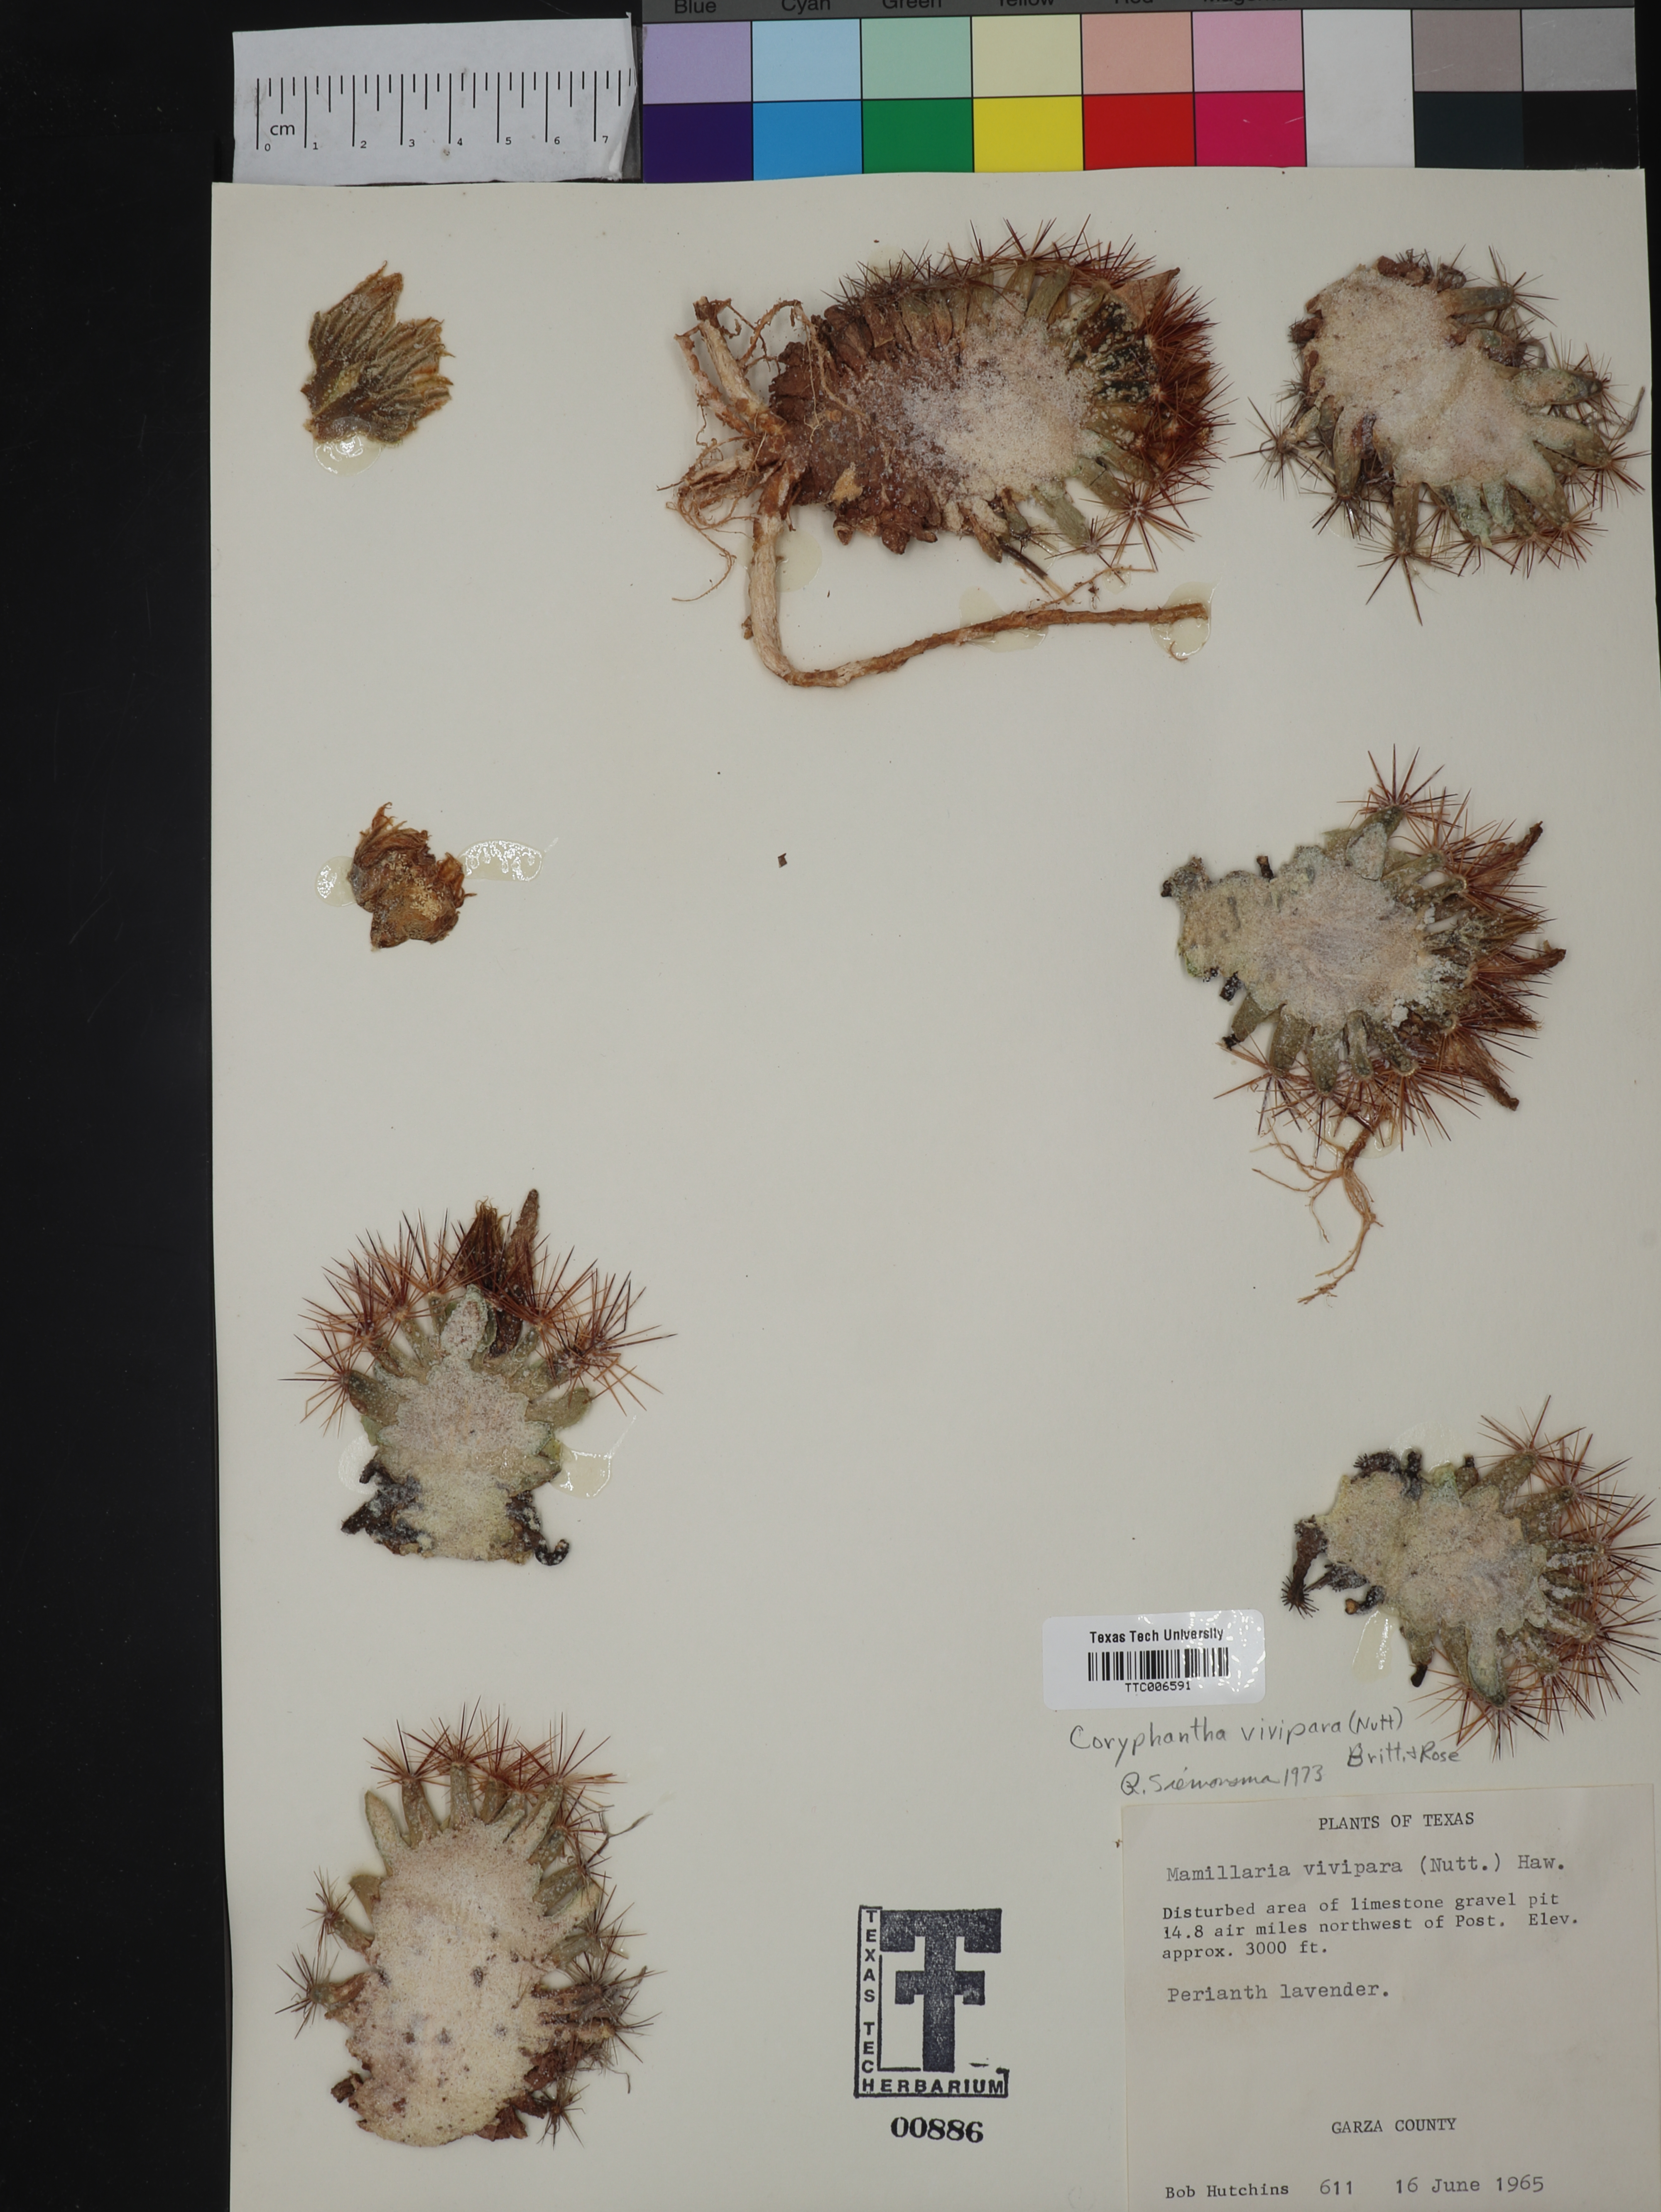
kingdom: Plantae
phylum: Tracheophyta
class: Magnoliopsida
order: Caryophyllales
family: Cactaceae
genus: Pelecyphora
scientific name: Pelecyphora vivipara
